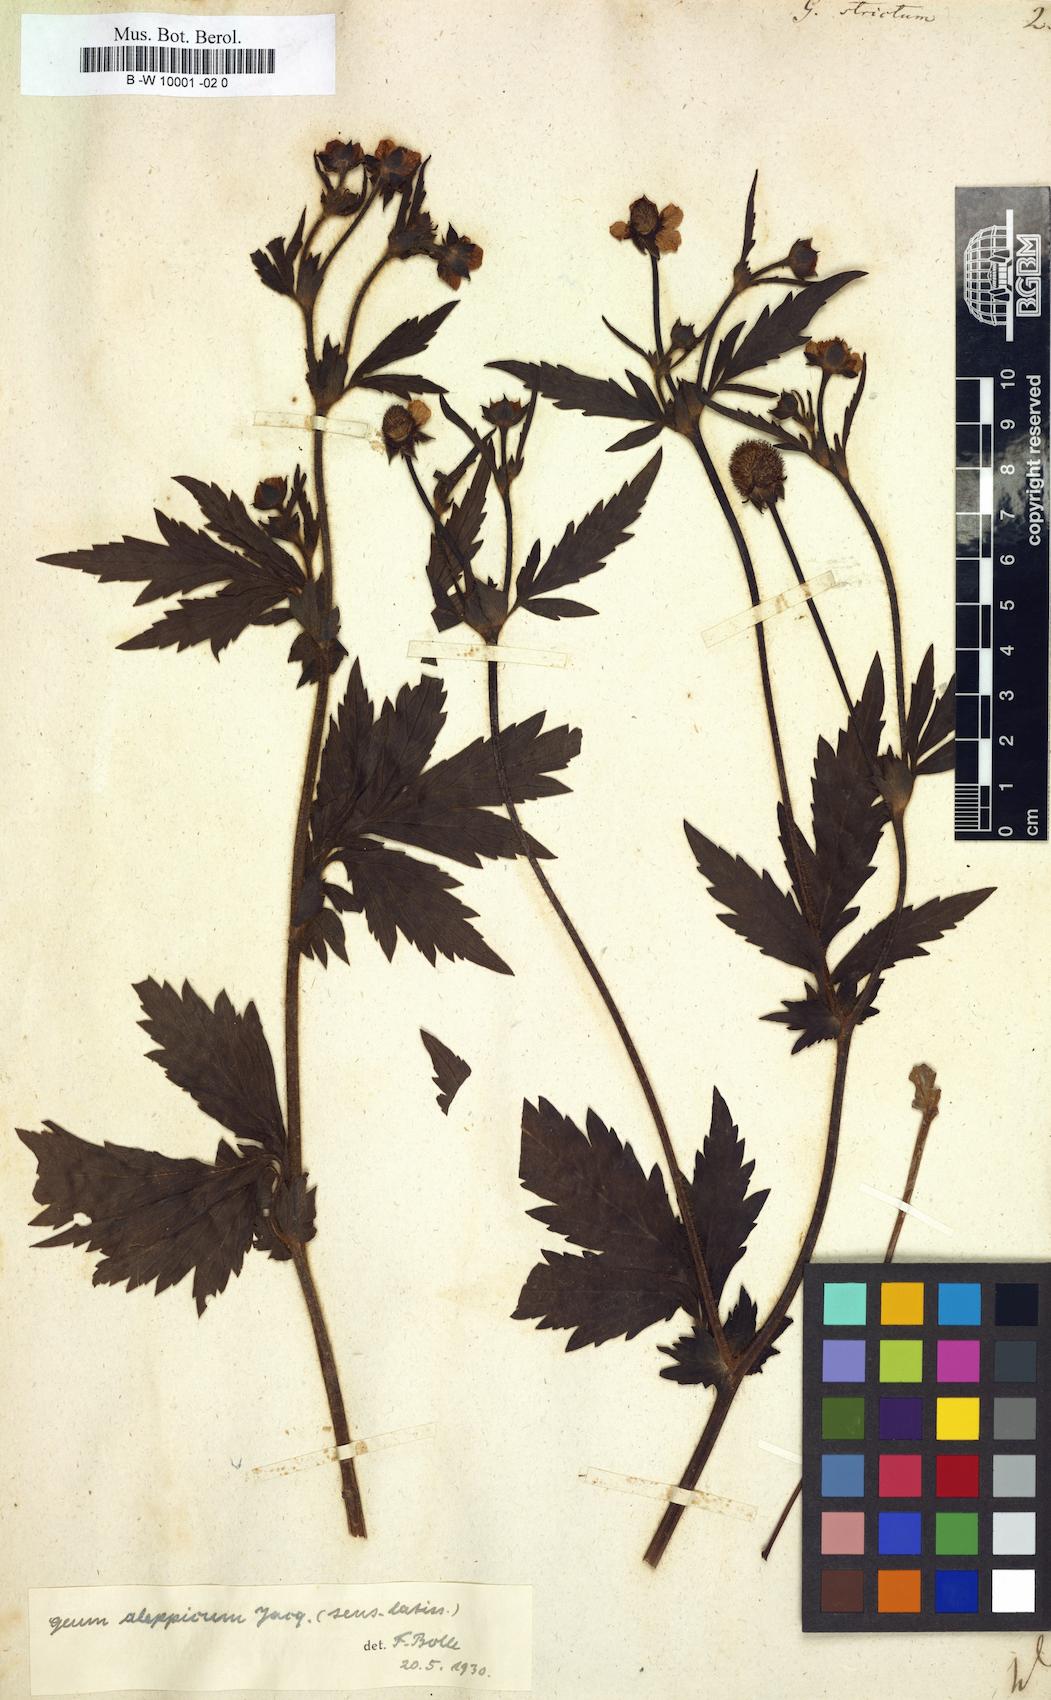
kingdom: Plantae
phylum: Tracheophyta
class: Magnoliopsida
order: Rosales
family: Rosaceae
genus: Geum
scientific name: Geum aleppicum
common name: Yellow avens
